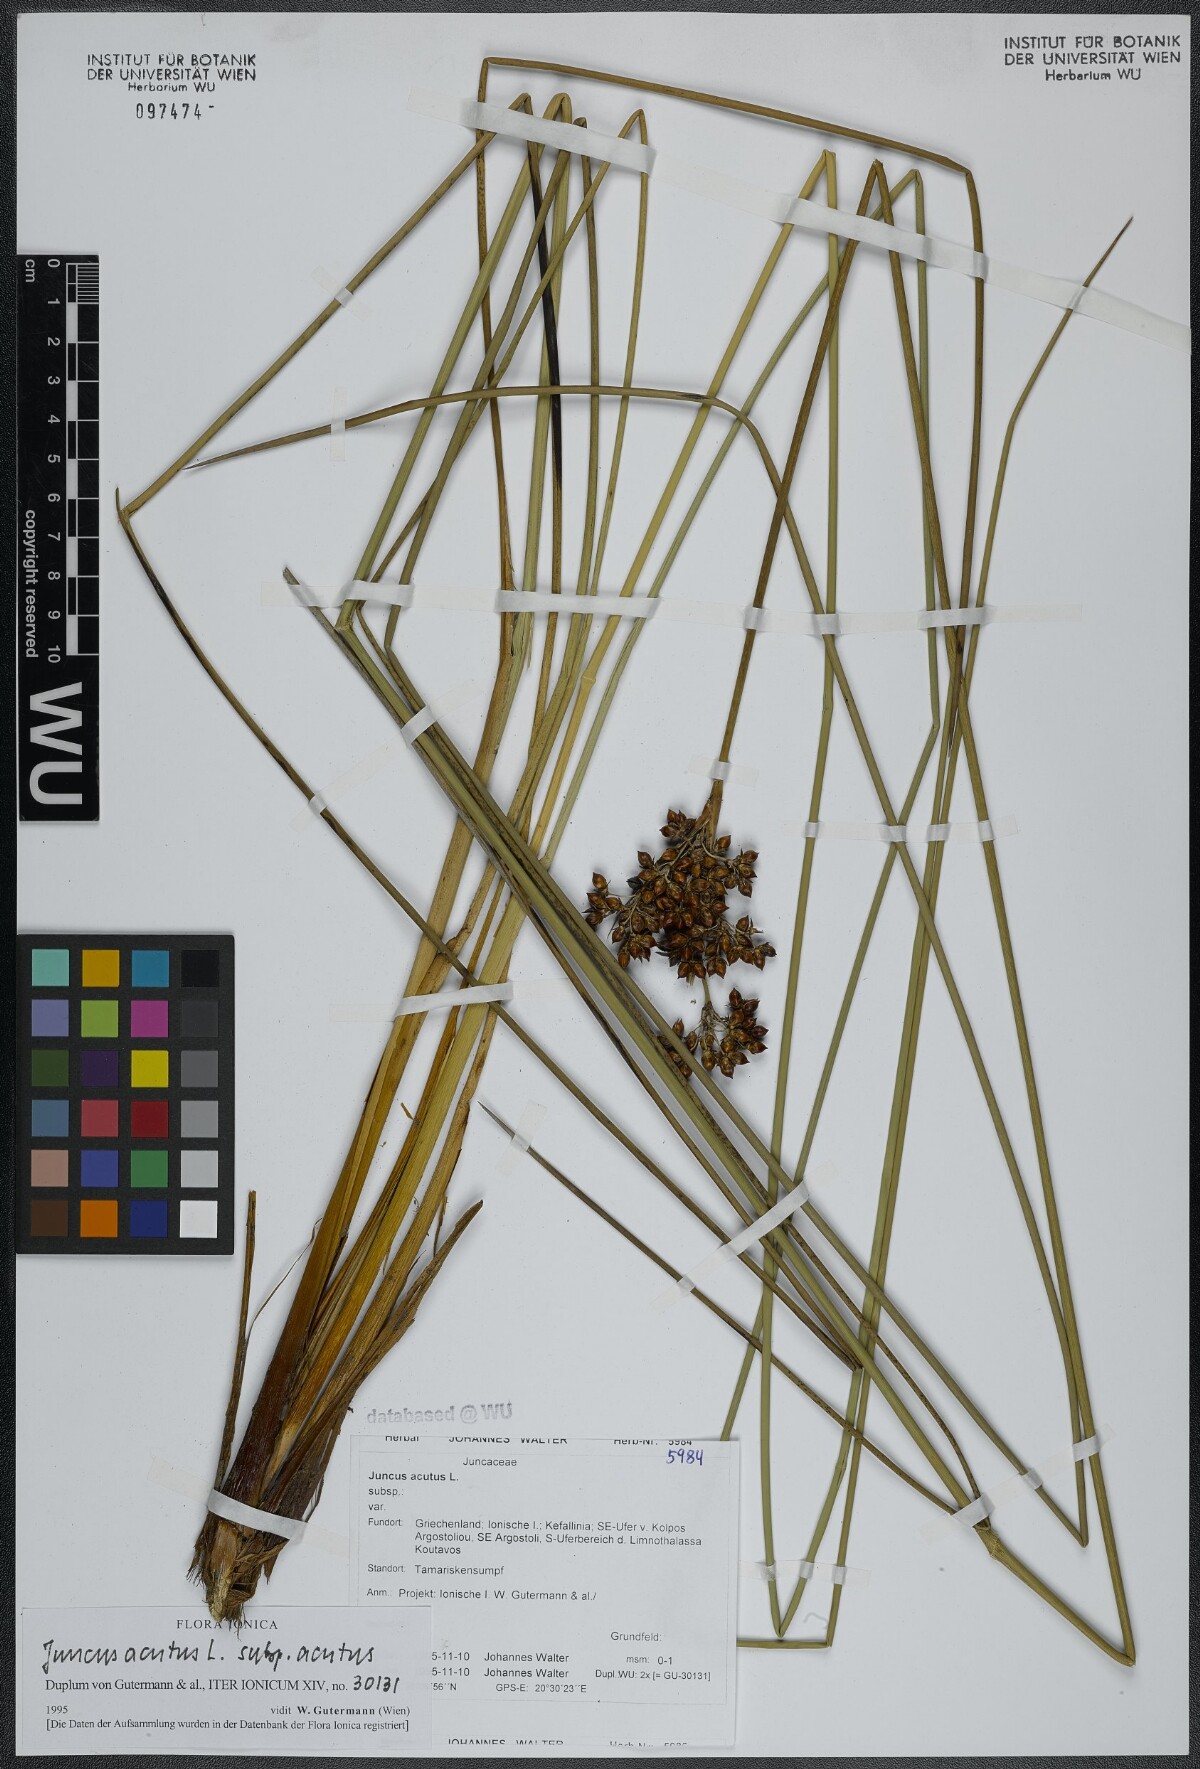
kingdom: Plantae
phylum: Tracheophyta
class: Liliopsida
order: Poales
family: Juncaceae
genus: Juncus
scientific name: Juncus acutus
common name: Sharp rush
